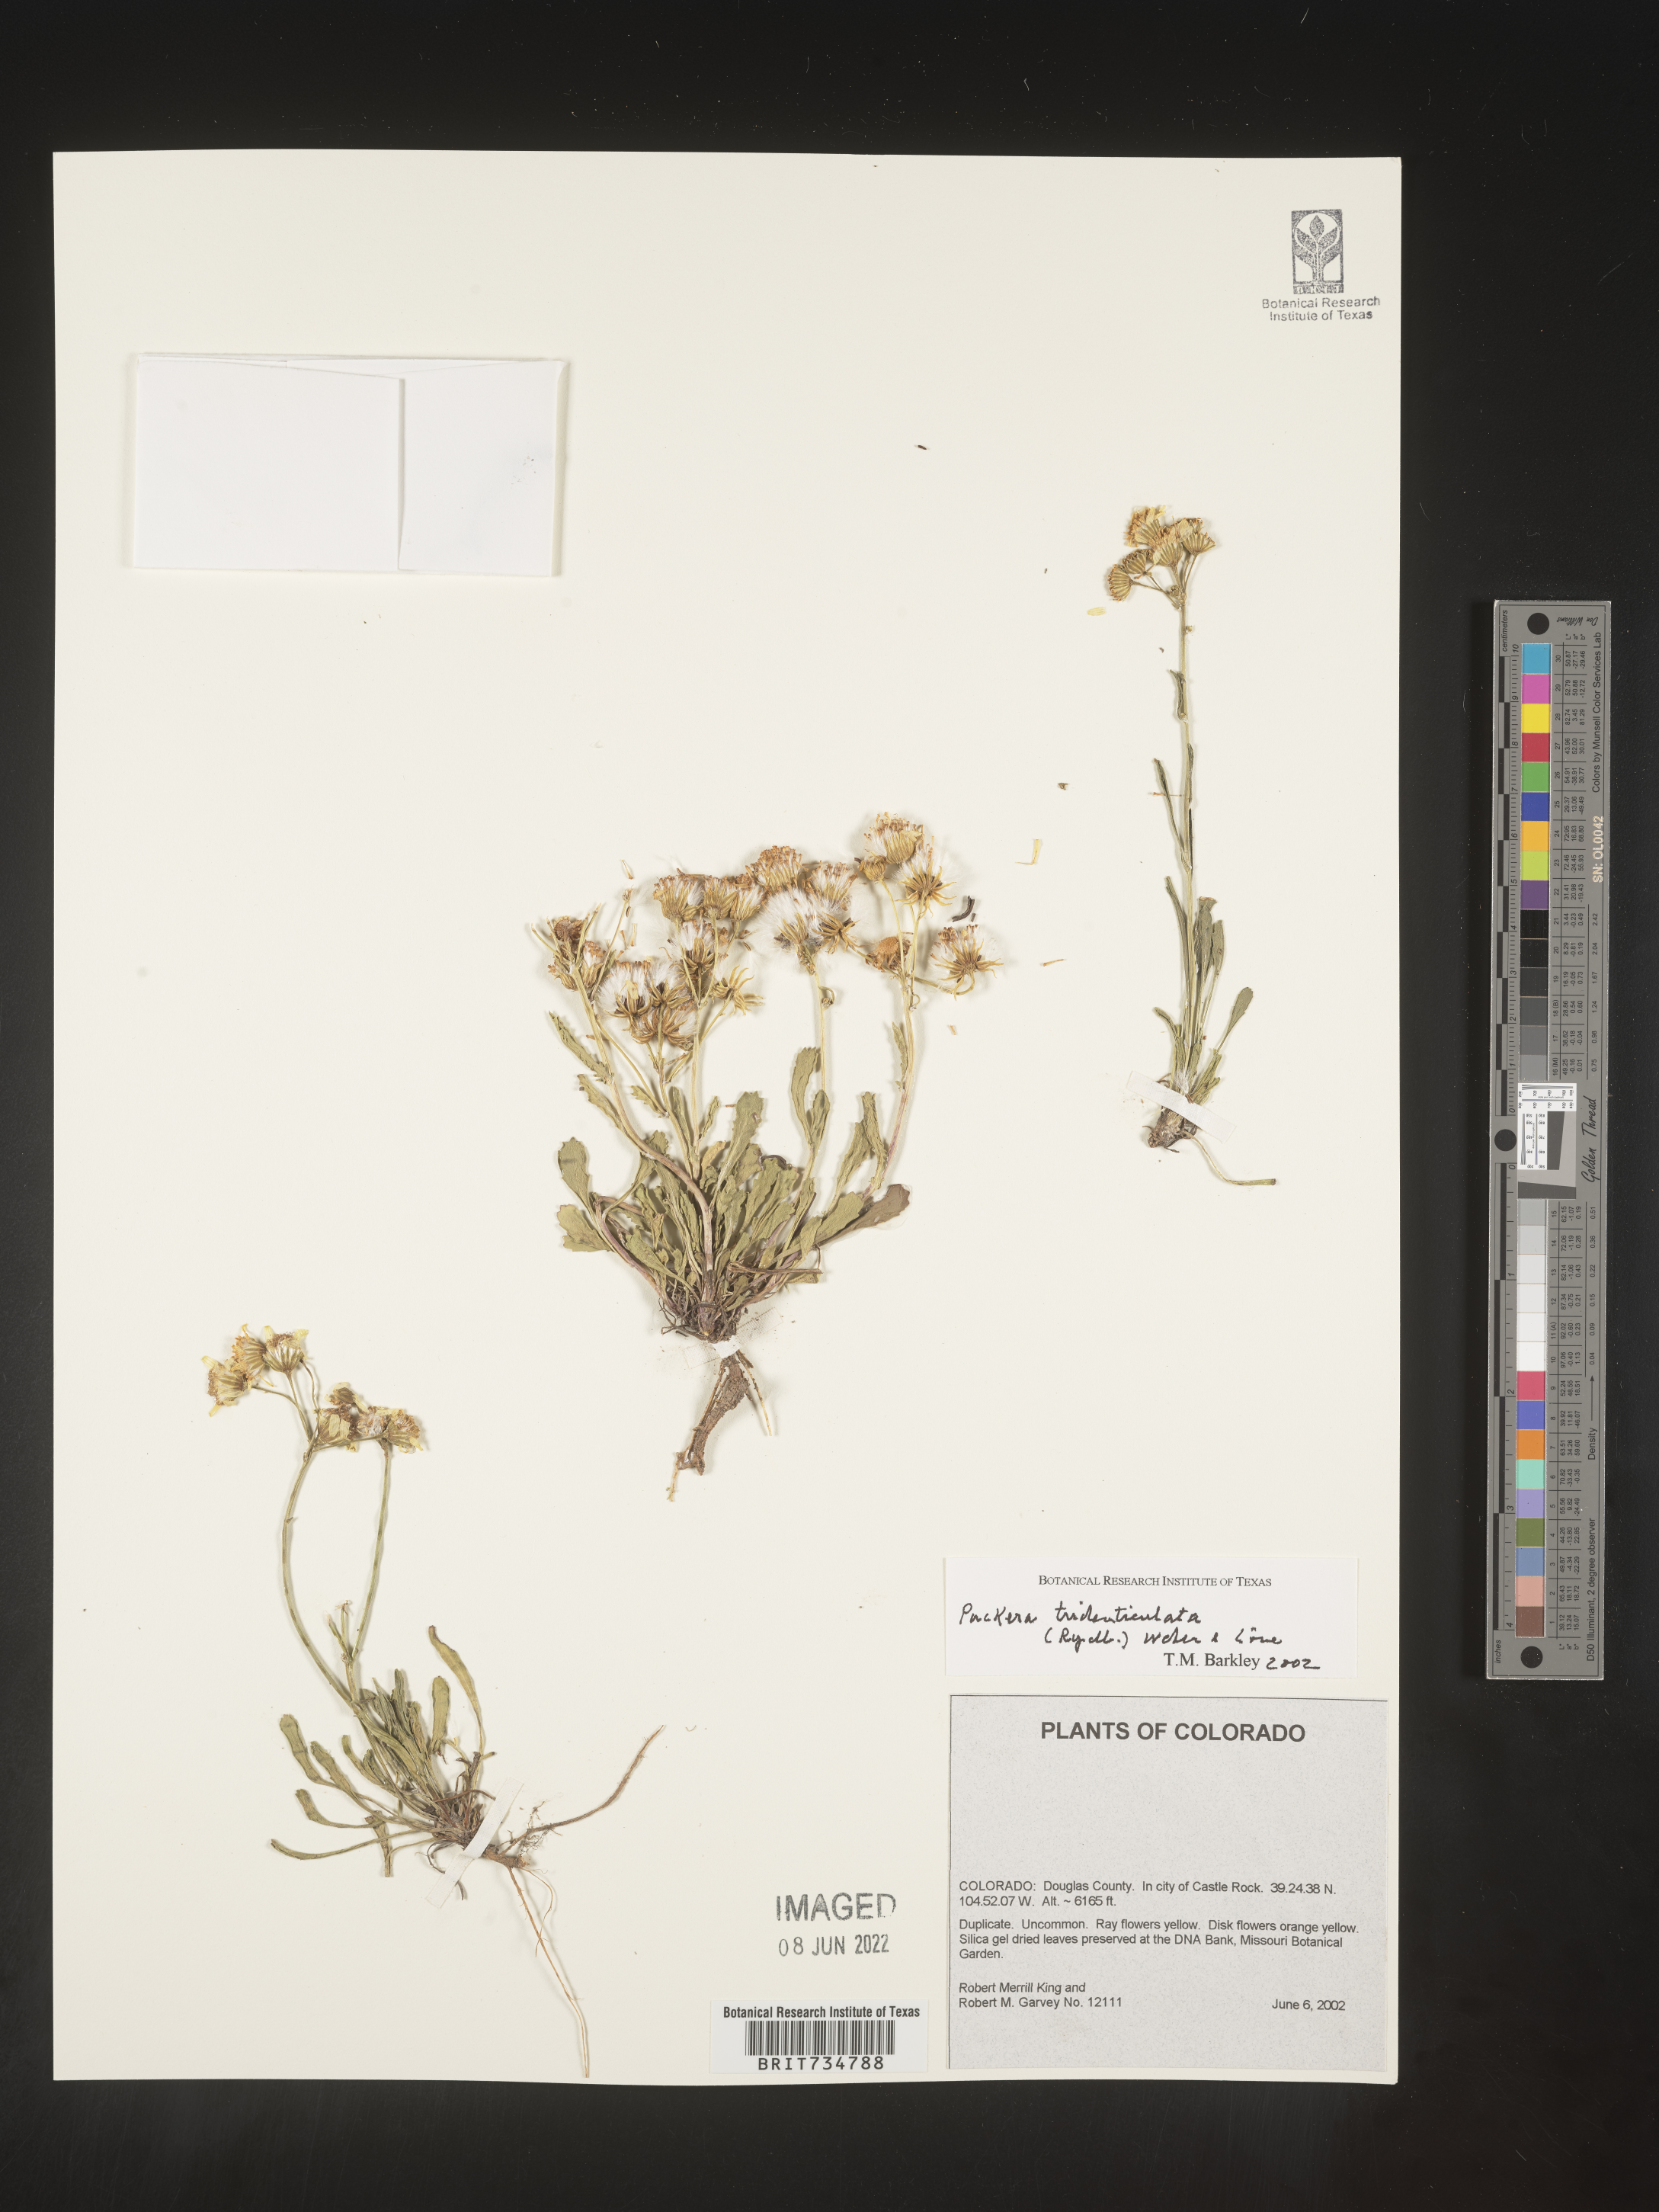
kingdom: Plantae
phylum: Tracheophyta
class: Magnoliopsida
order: Asterales
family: Asteraceae
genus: Packera
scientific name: Packera thurberi
